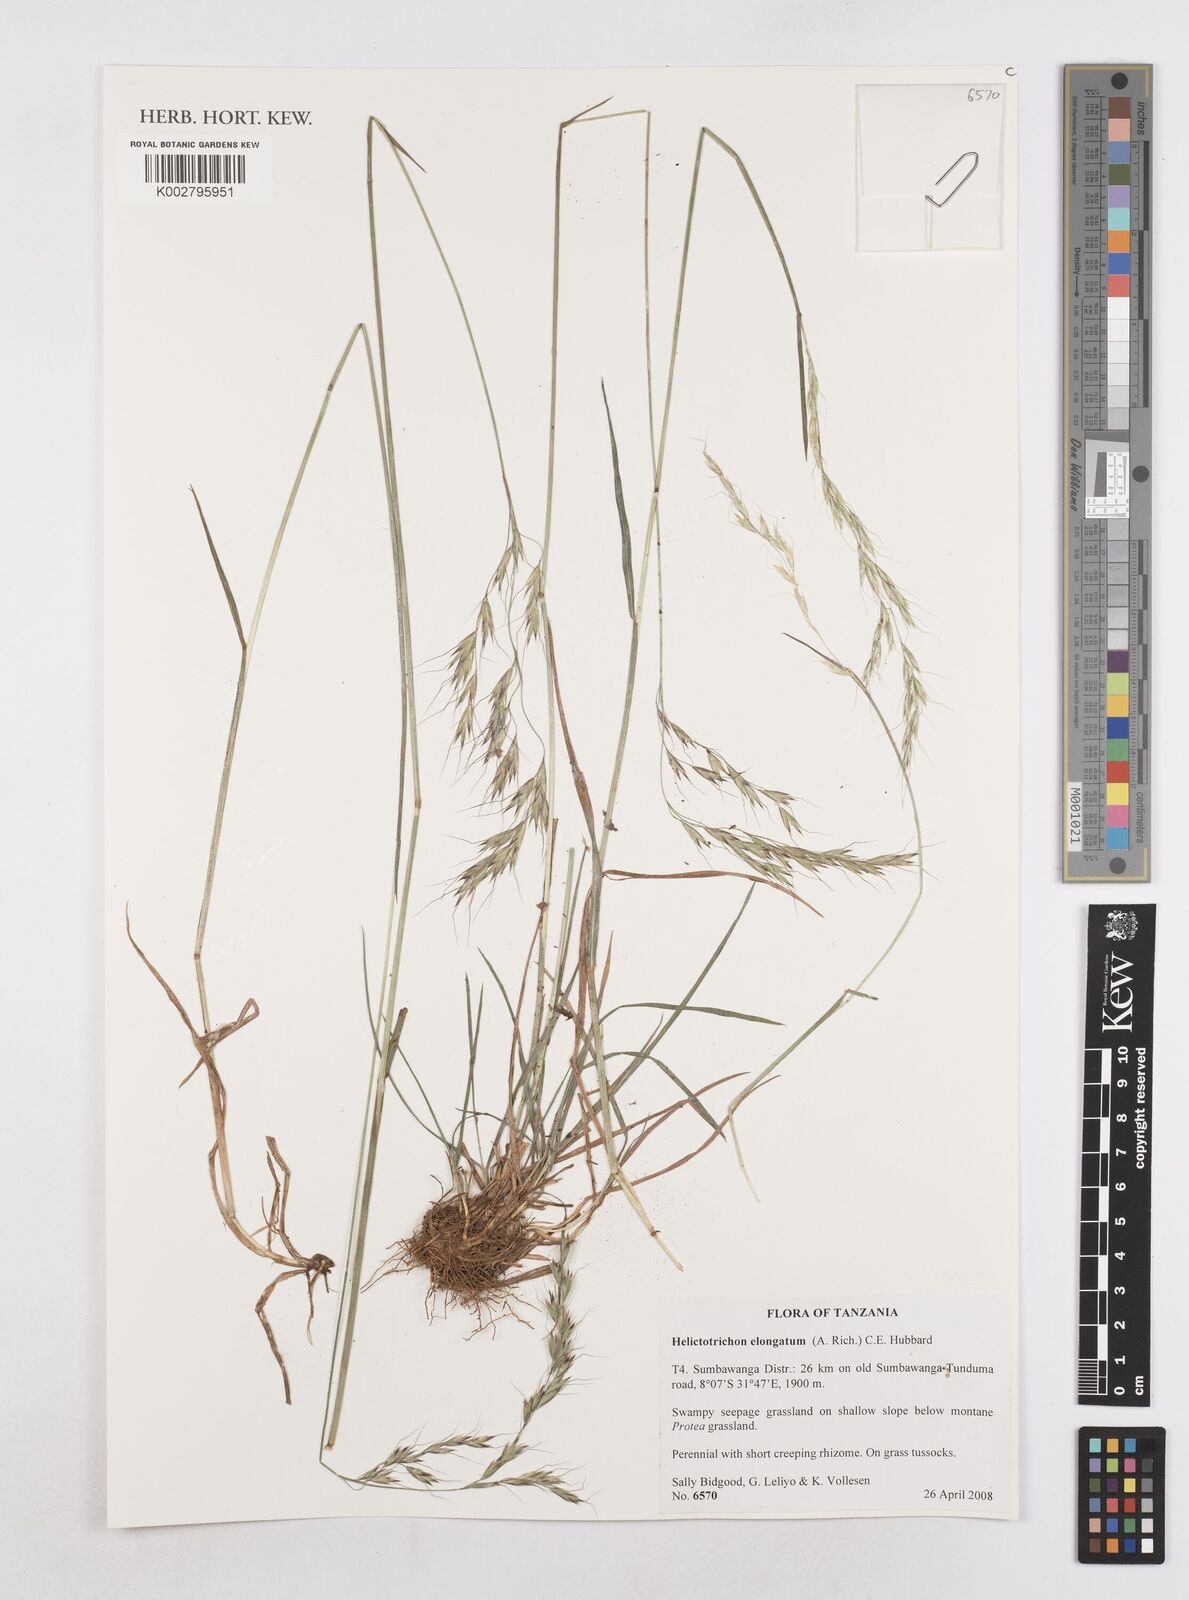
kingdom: Plantae
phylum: Tracheophyta
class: Liliopsida
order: Poales
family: Poaceae
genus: Trisetopsis
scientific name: Trisetopsis elongata
